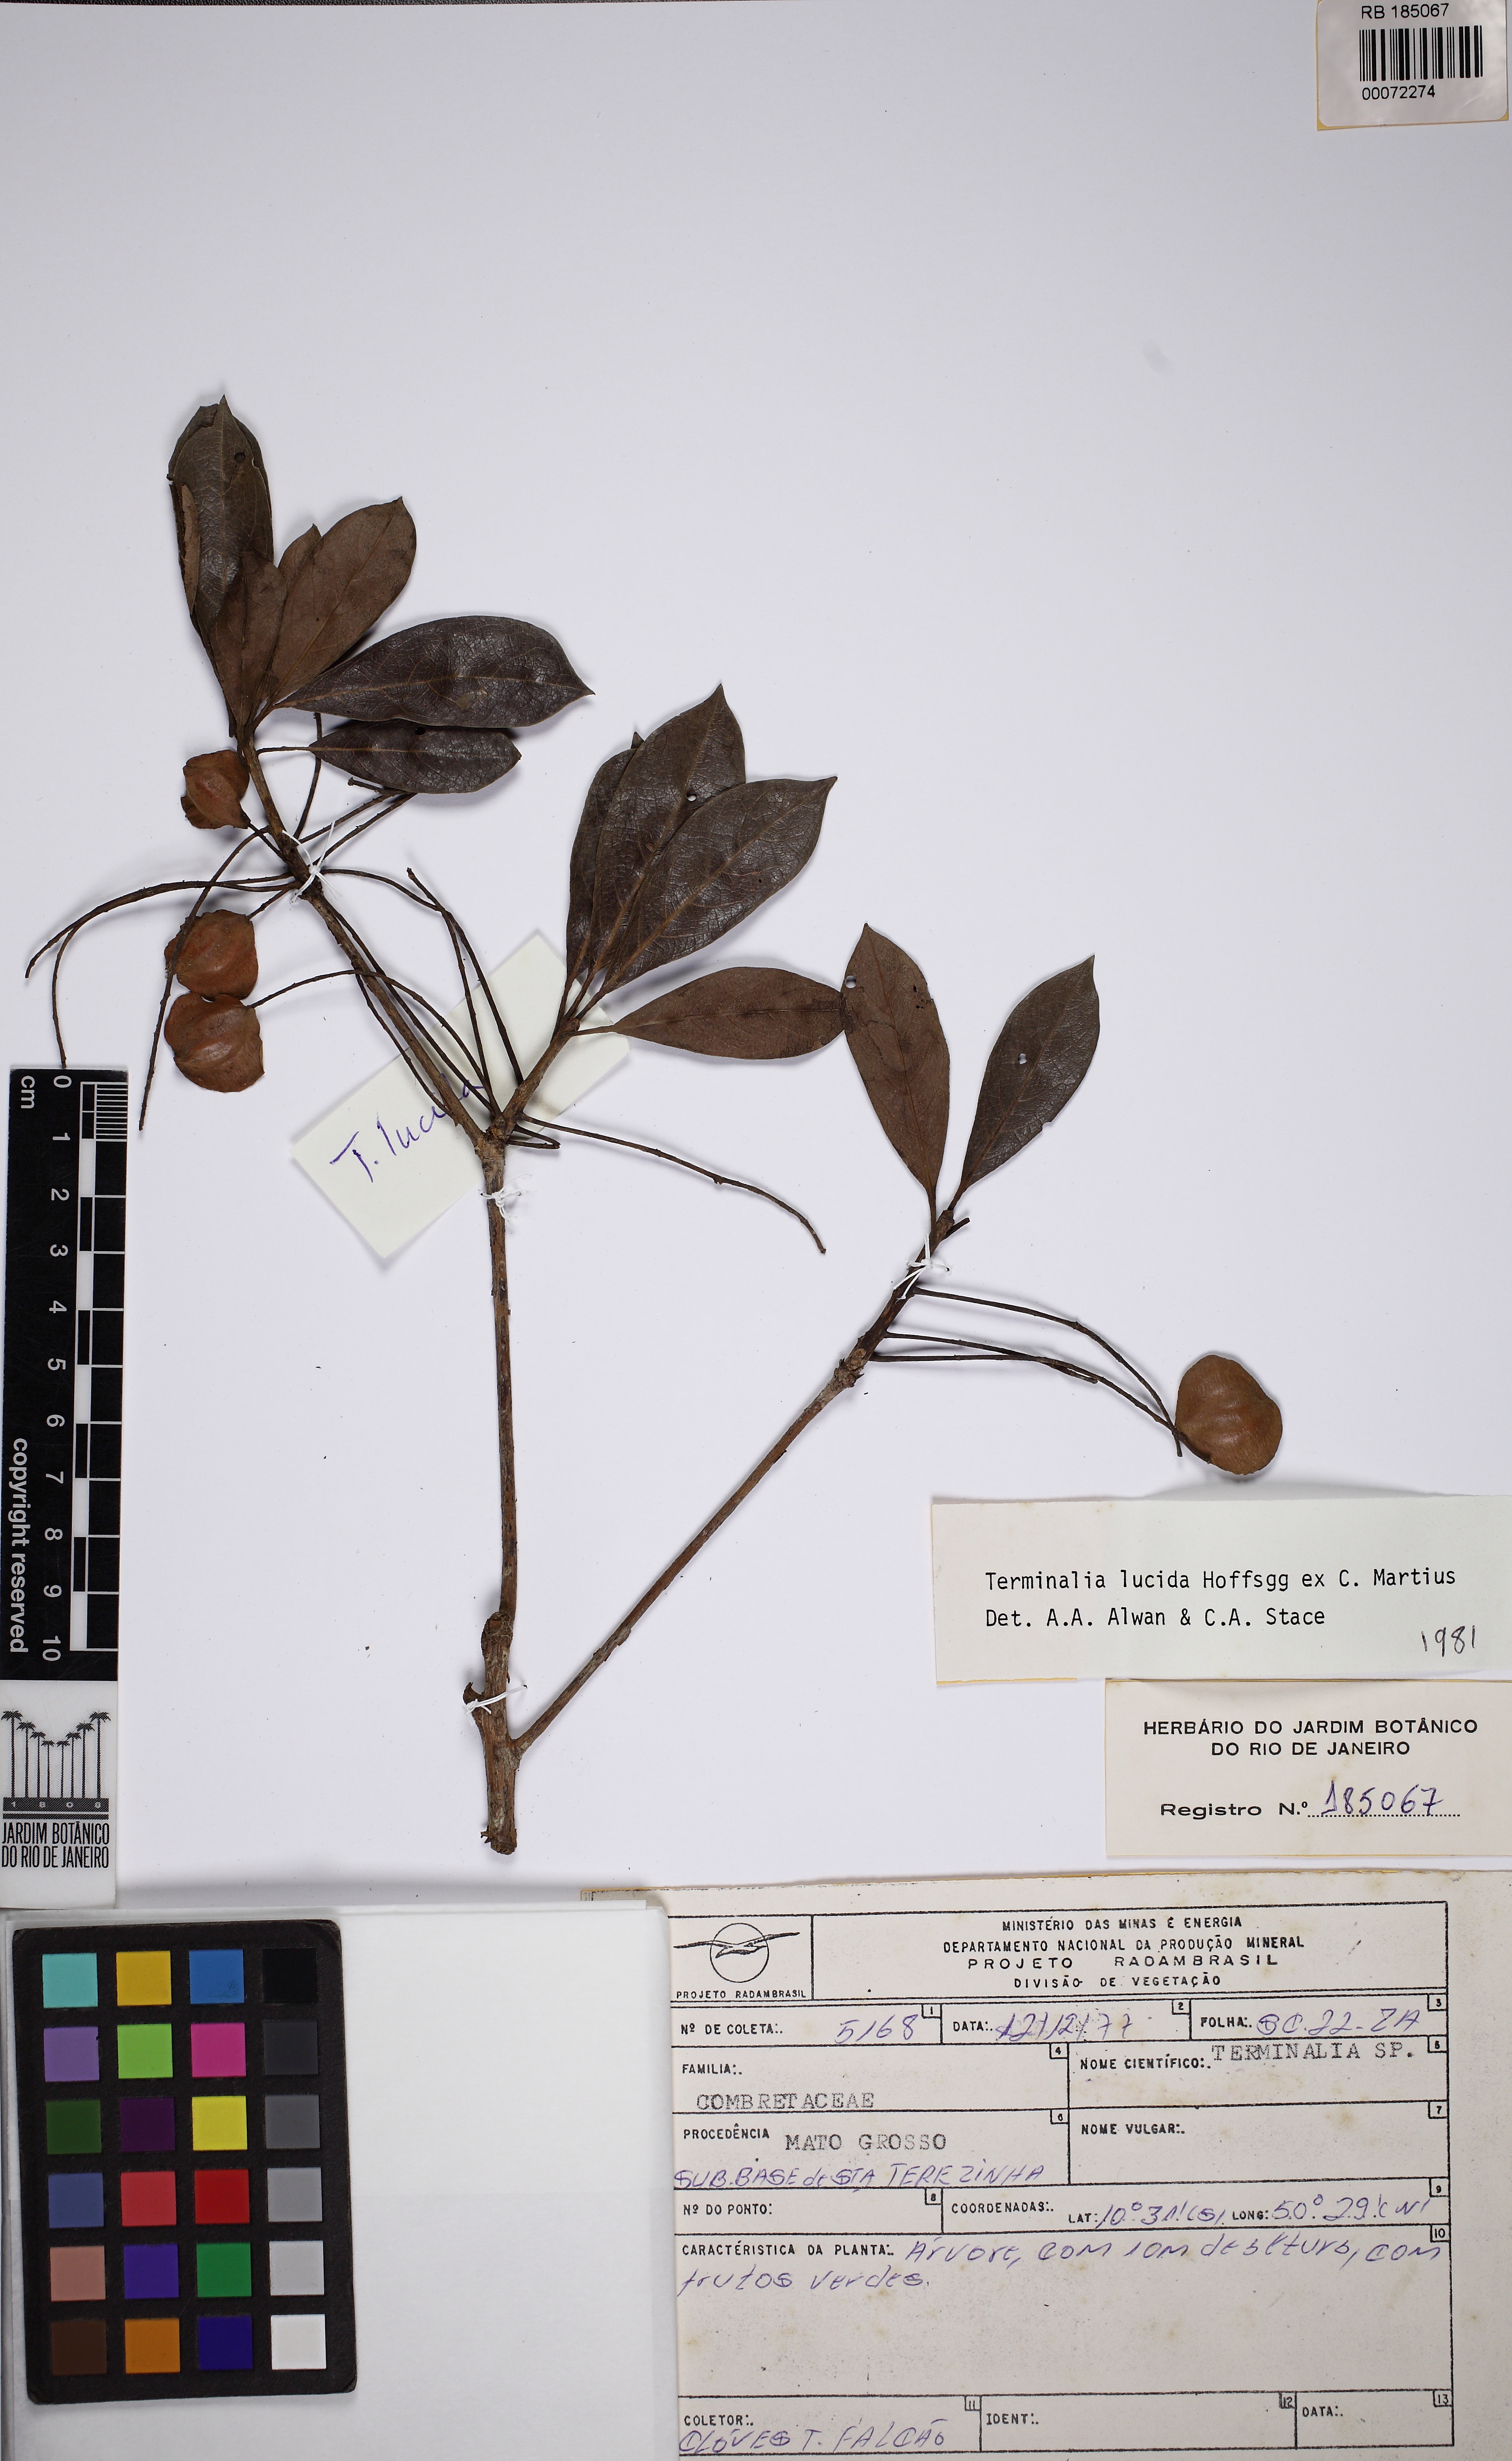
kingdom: Plantae
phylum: Tracheophyta
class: Magnoliopsida
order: Myrtales
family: Combretaceae
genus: Terminalia
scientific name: Terminalia lucida
